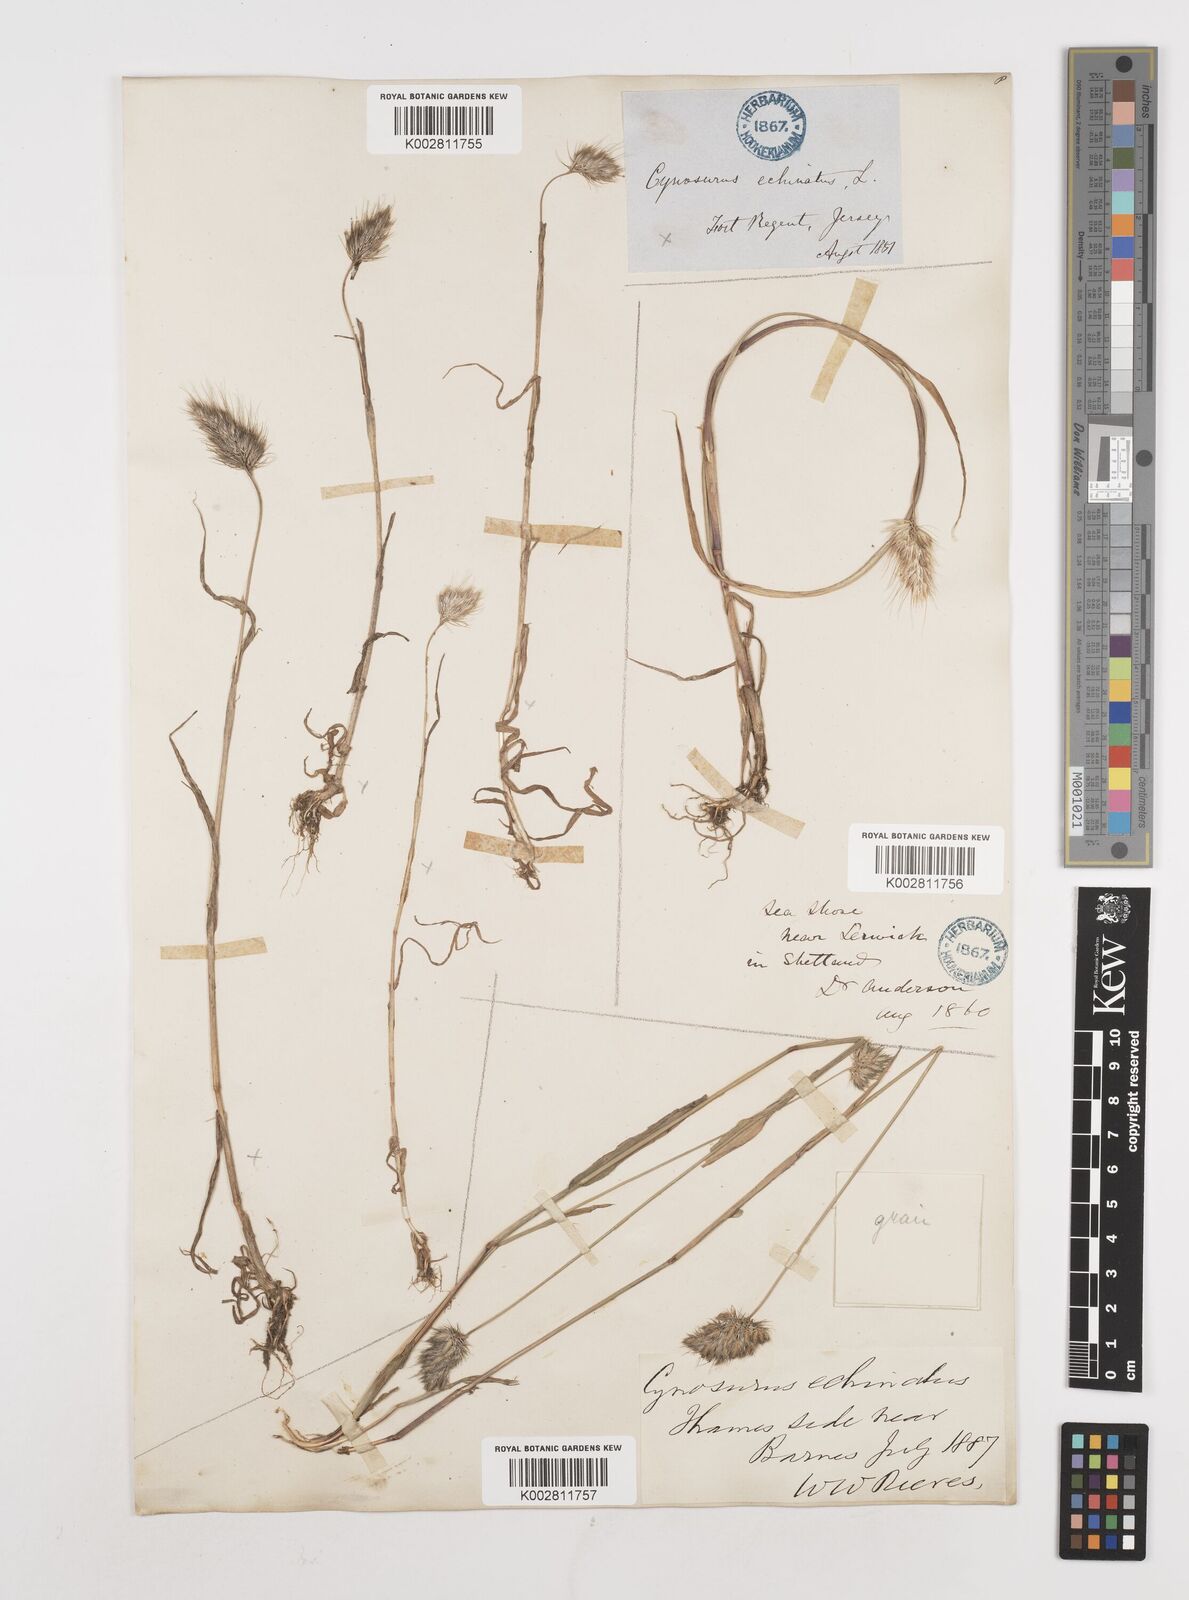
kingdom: Plantae
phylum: Tracheophyta
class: Liliopsida
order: Poales
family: Poaceae
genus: Cynosurus
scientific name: Cynosurus echinatus
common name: Rough dog's-tail
